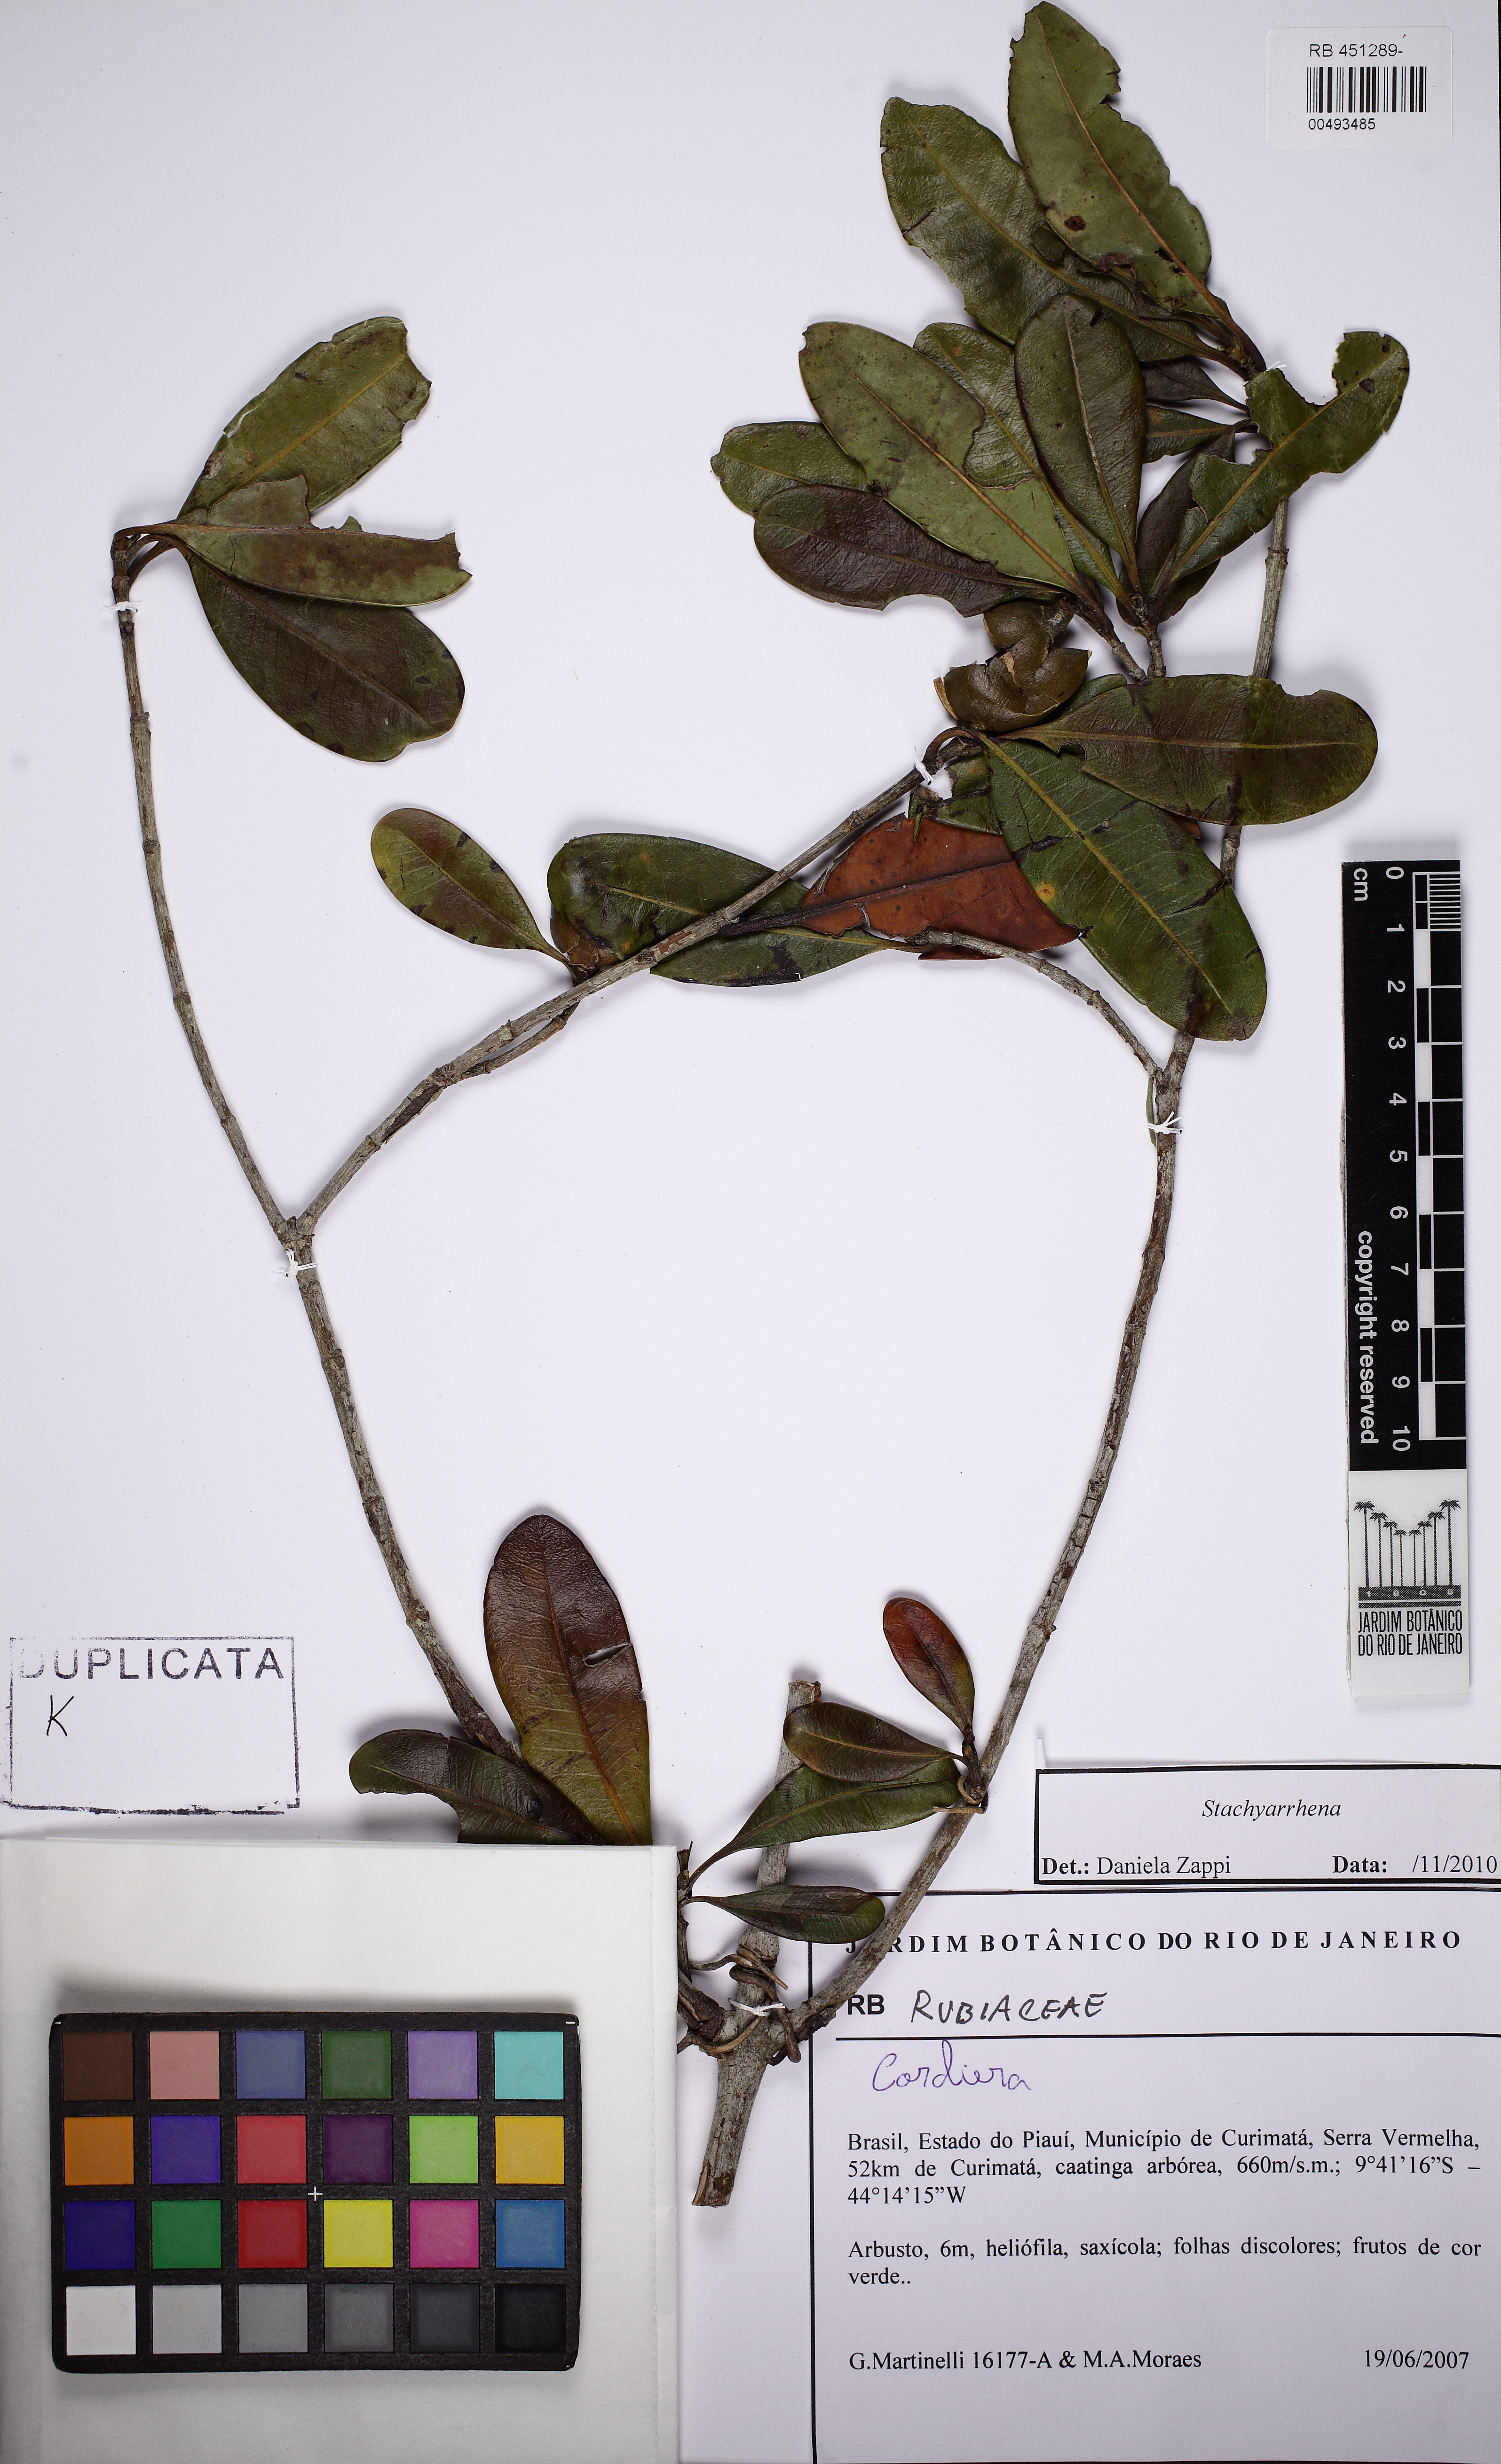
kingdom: Plantae
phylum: Tracheophyta
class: Magnoliopsida
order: Gentianales
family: Rubiaceae
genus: Stachyarrhena
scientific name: Stachyarrhena reflexa
